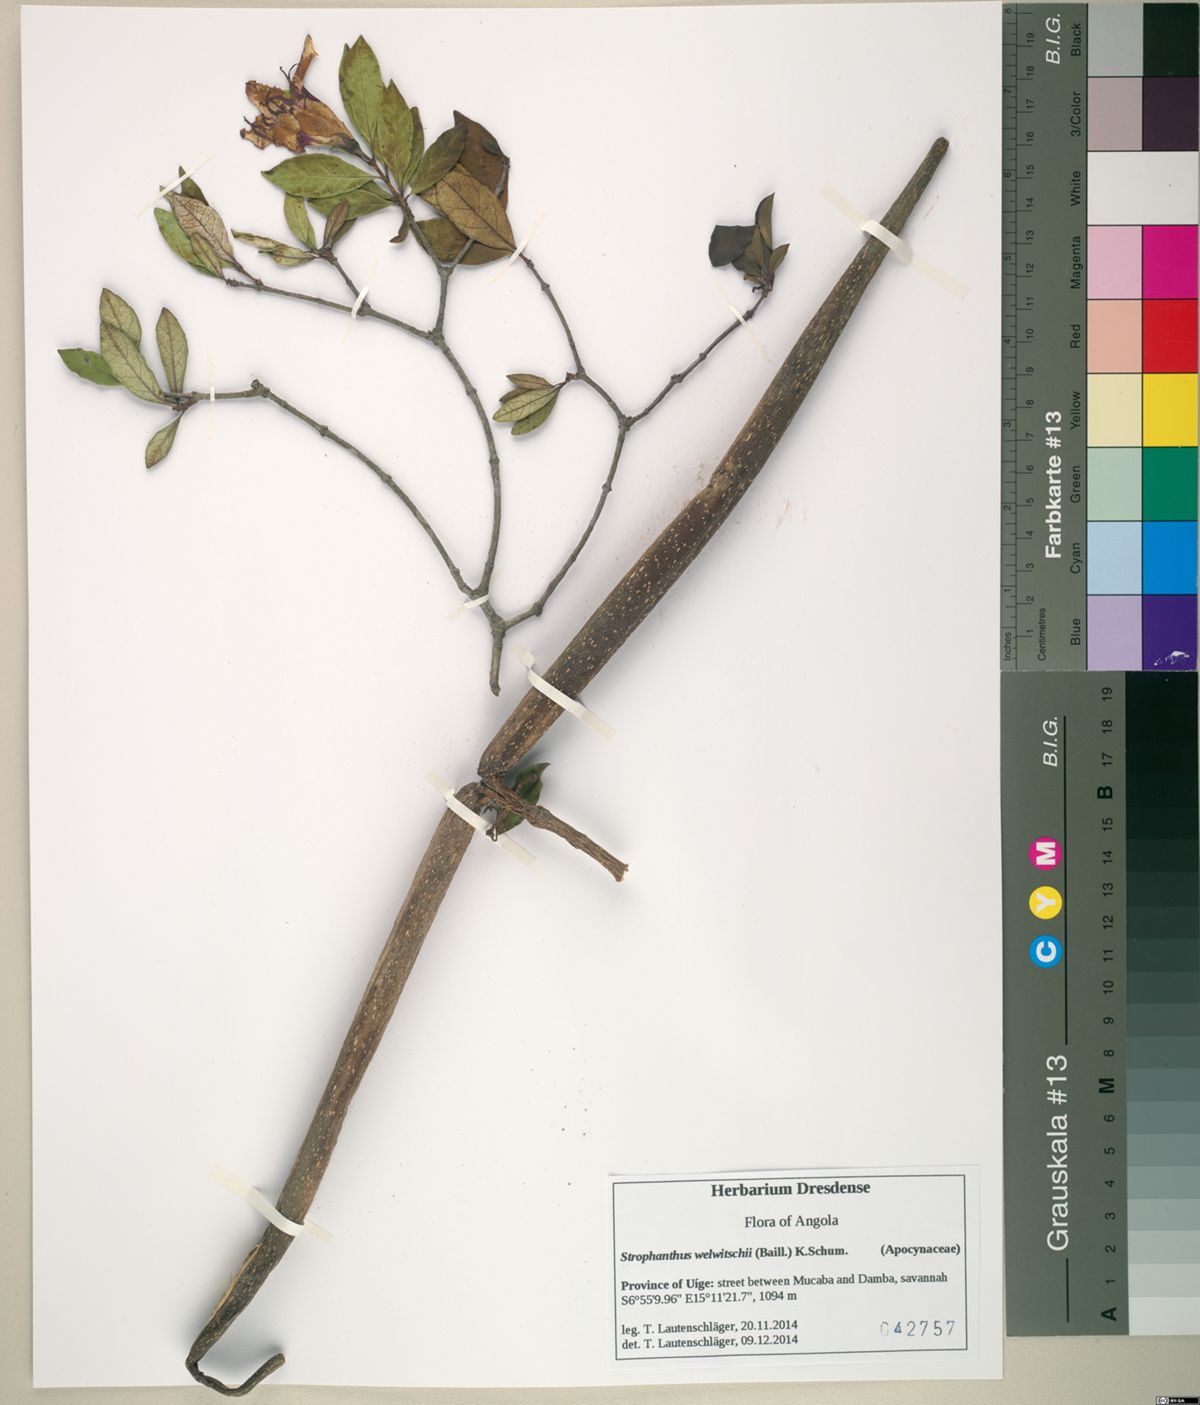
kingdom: Plantae
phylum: Tracheophyta
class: Magnoliopsida
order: Gentianales
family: Apocynaceae
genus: Strophanthus
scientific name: Strophanthus welwitschii
